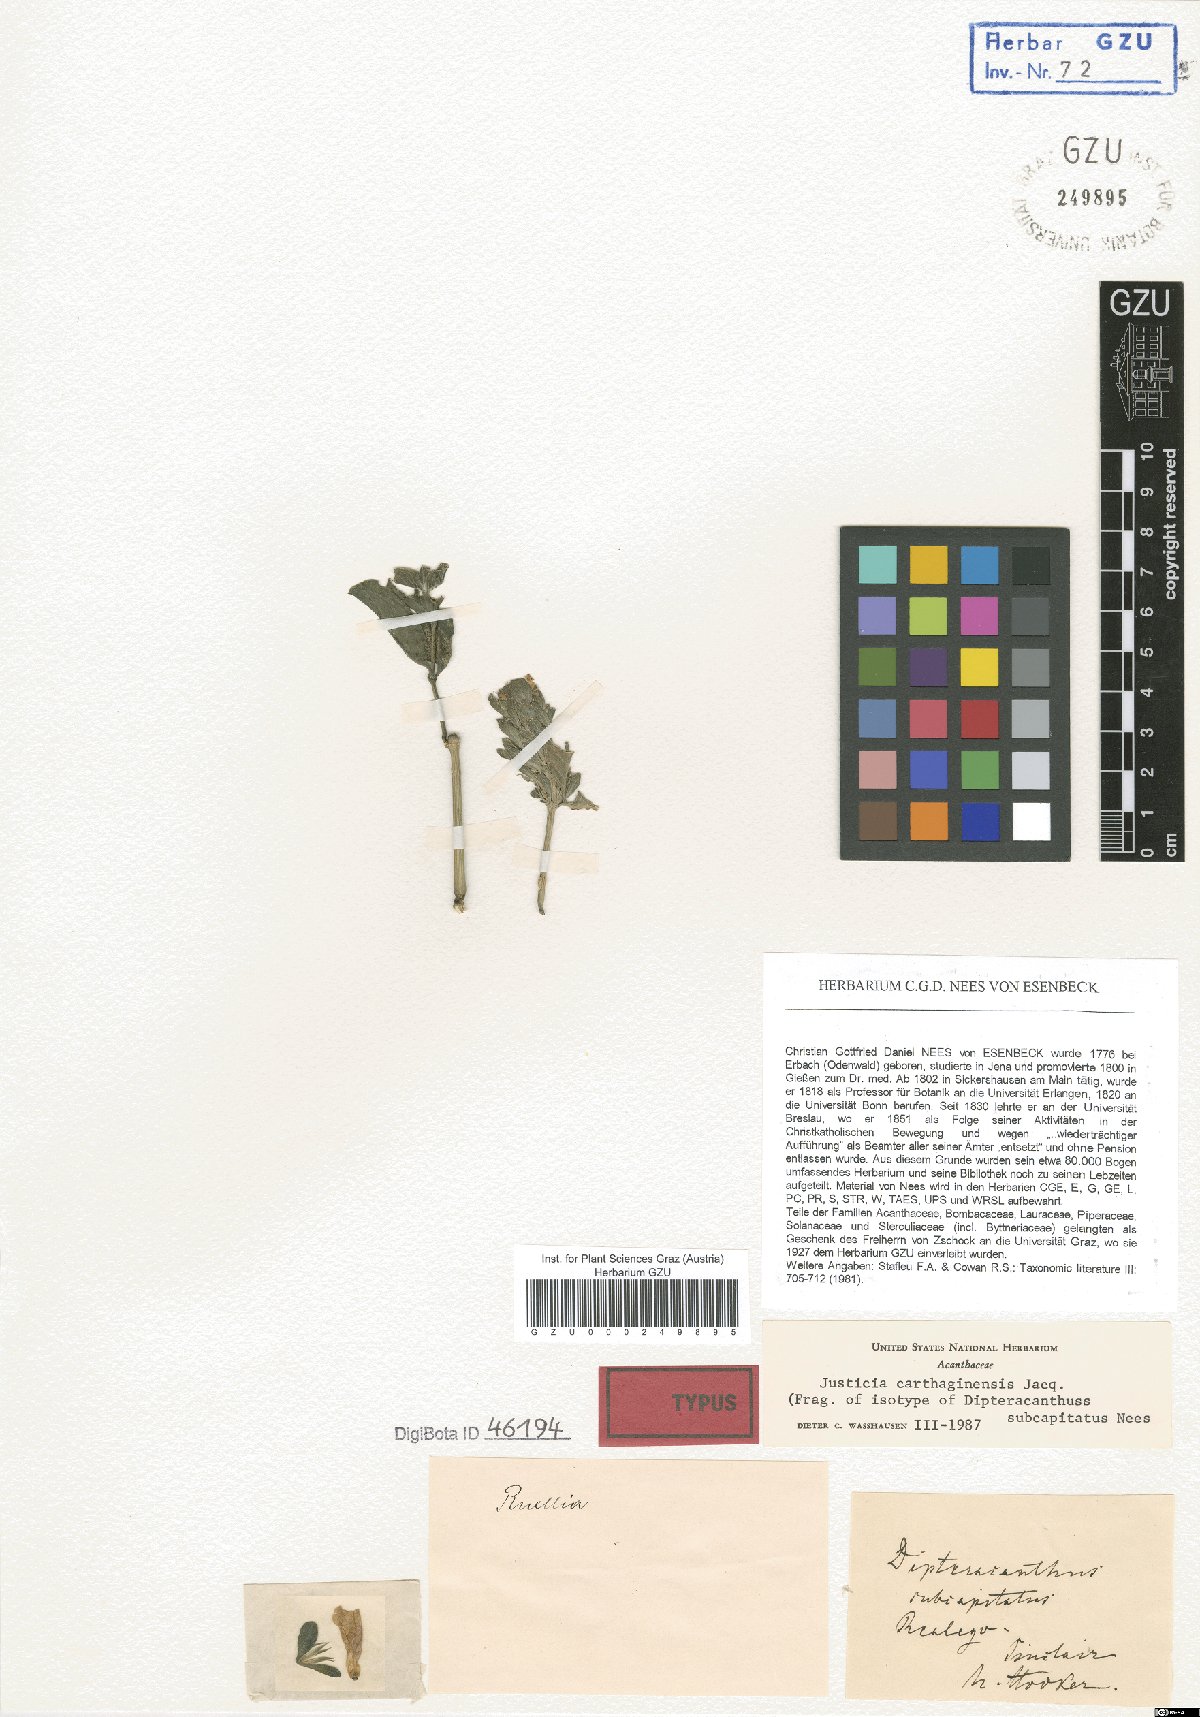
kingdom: Plantae
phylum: Tracheophyta
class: Magnoliopsida
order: Lamiales
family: Acanthaceae
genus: Ruellia
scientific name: Ruellia tetragona
